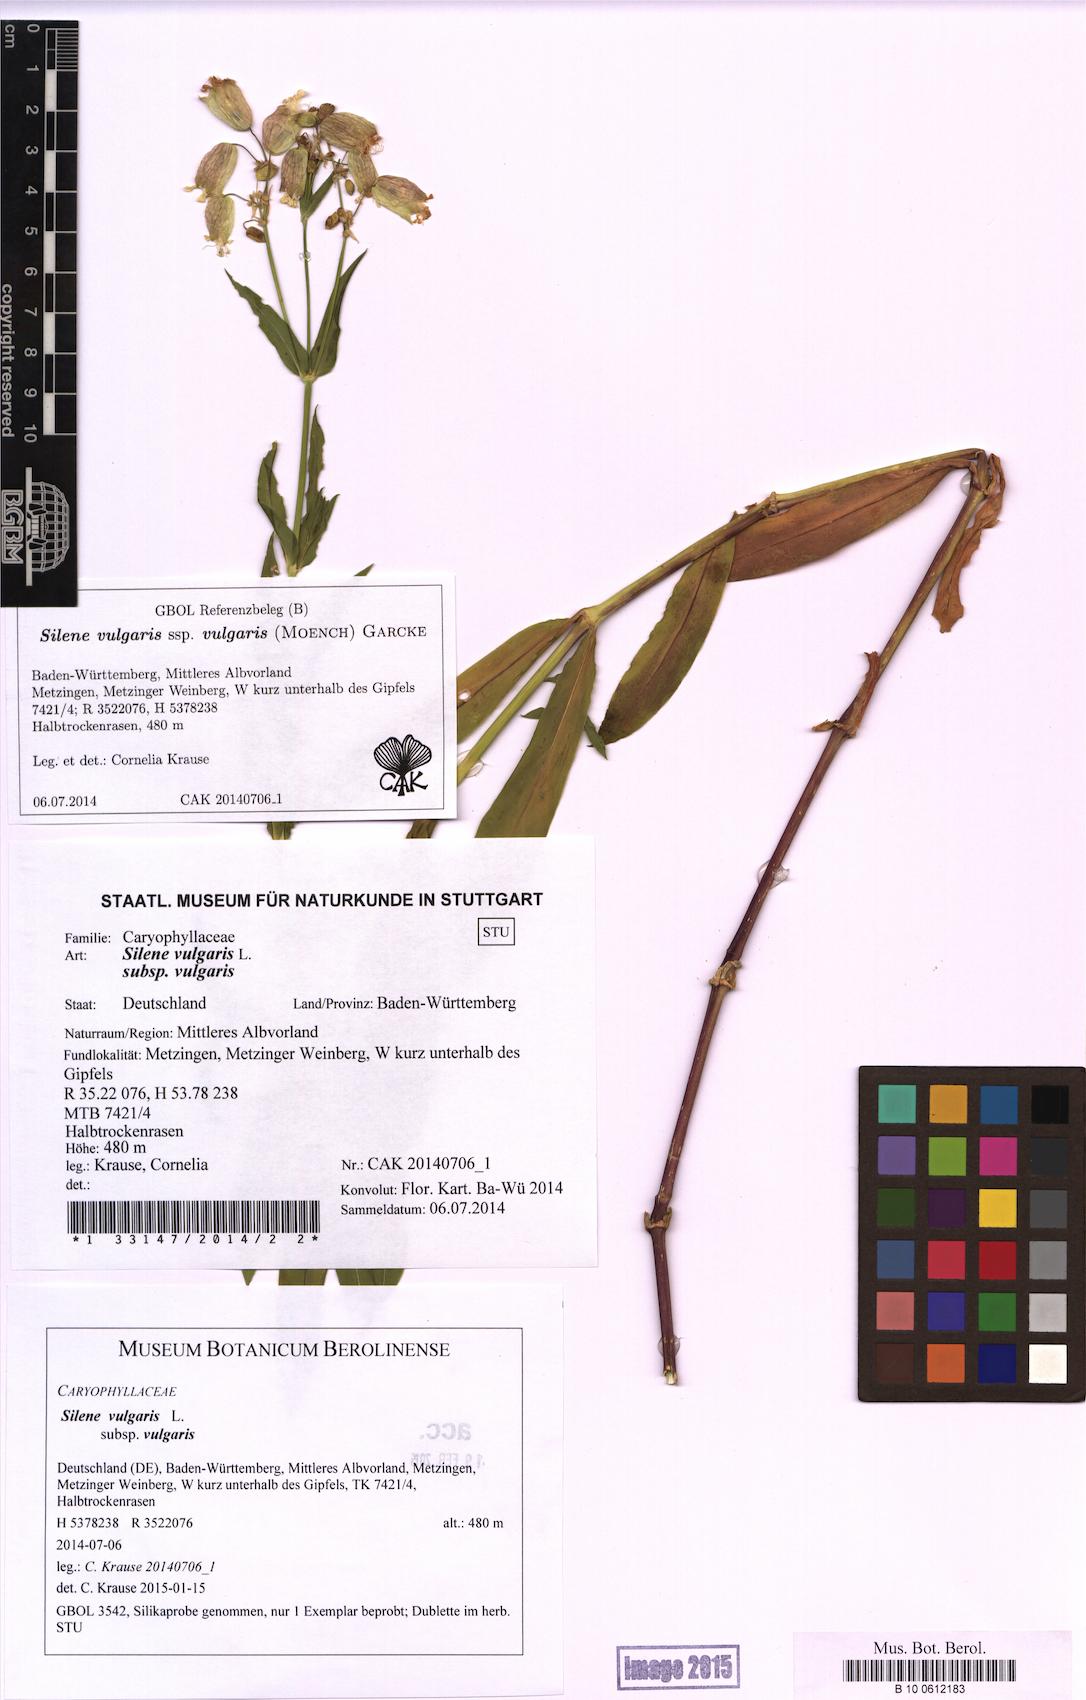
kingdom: Plantae
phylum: Tracheophyta
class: Magnoliopsida
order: Caryophyllales
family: Caryophyllaceae
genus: Silene
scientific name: Silene vulgaris
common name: Bladder campion
